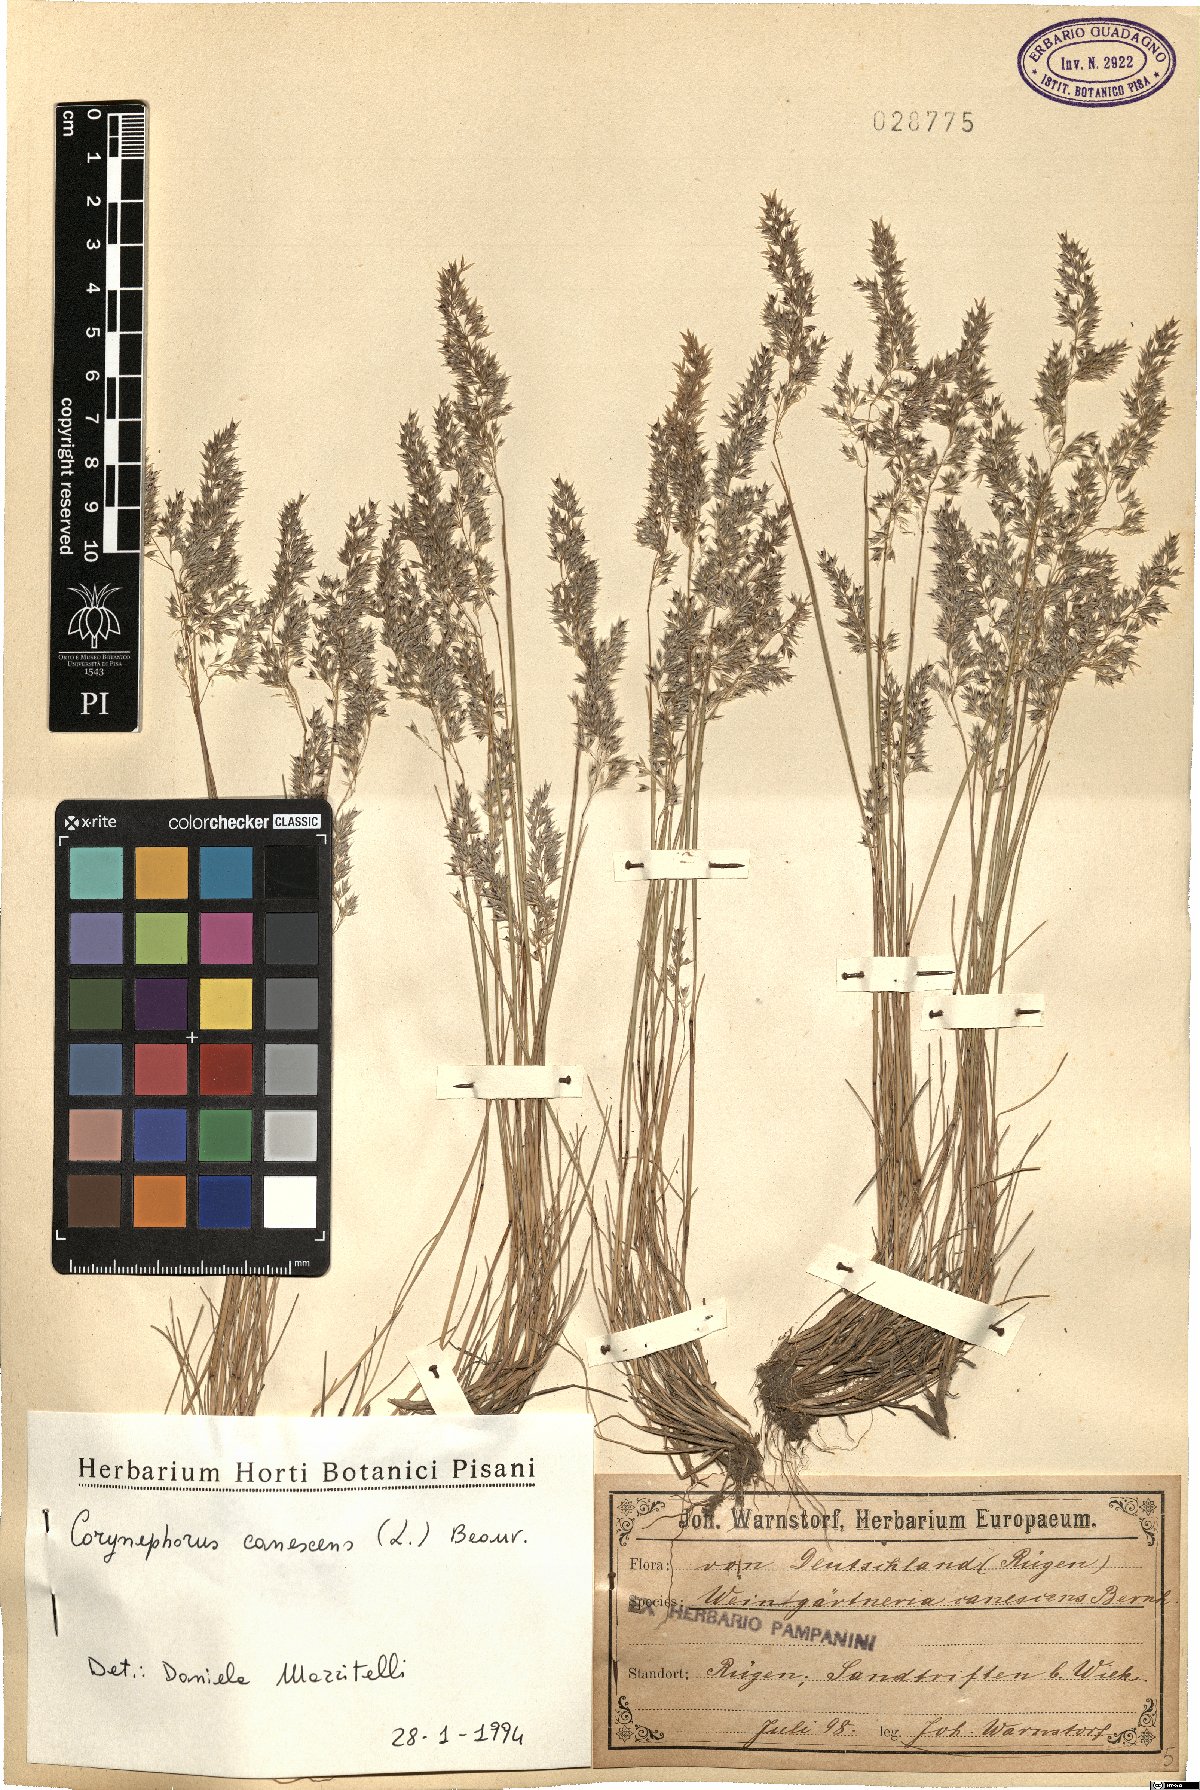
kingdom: Plantae
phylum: Tracheophyta
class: Liliopsida
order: Poales
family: Poaceae
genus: Corynephorus
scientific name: Corynephorus canescens
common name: Grey hair-grass
